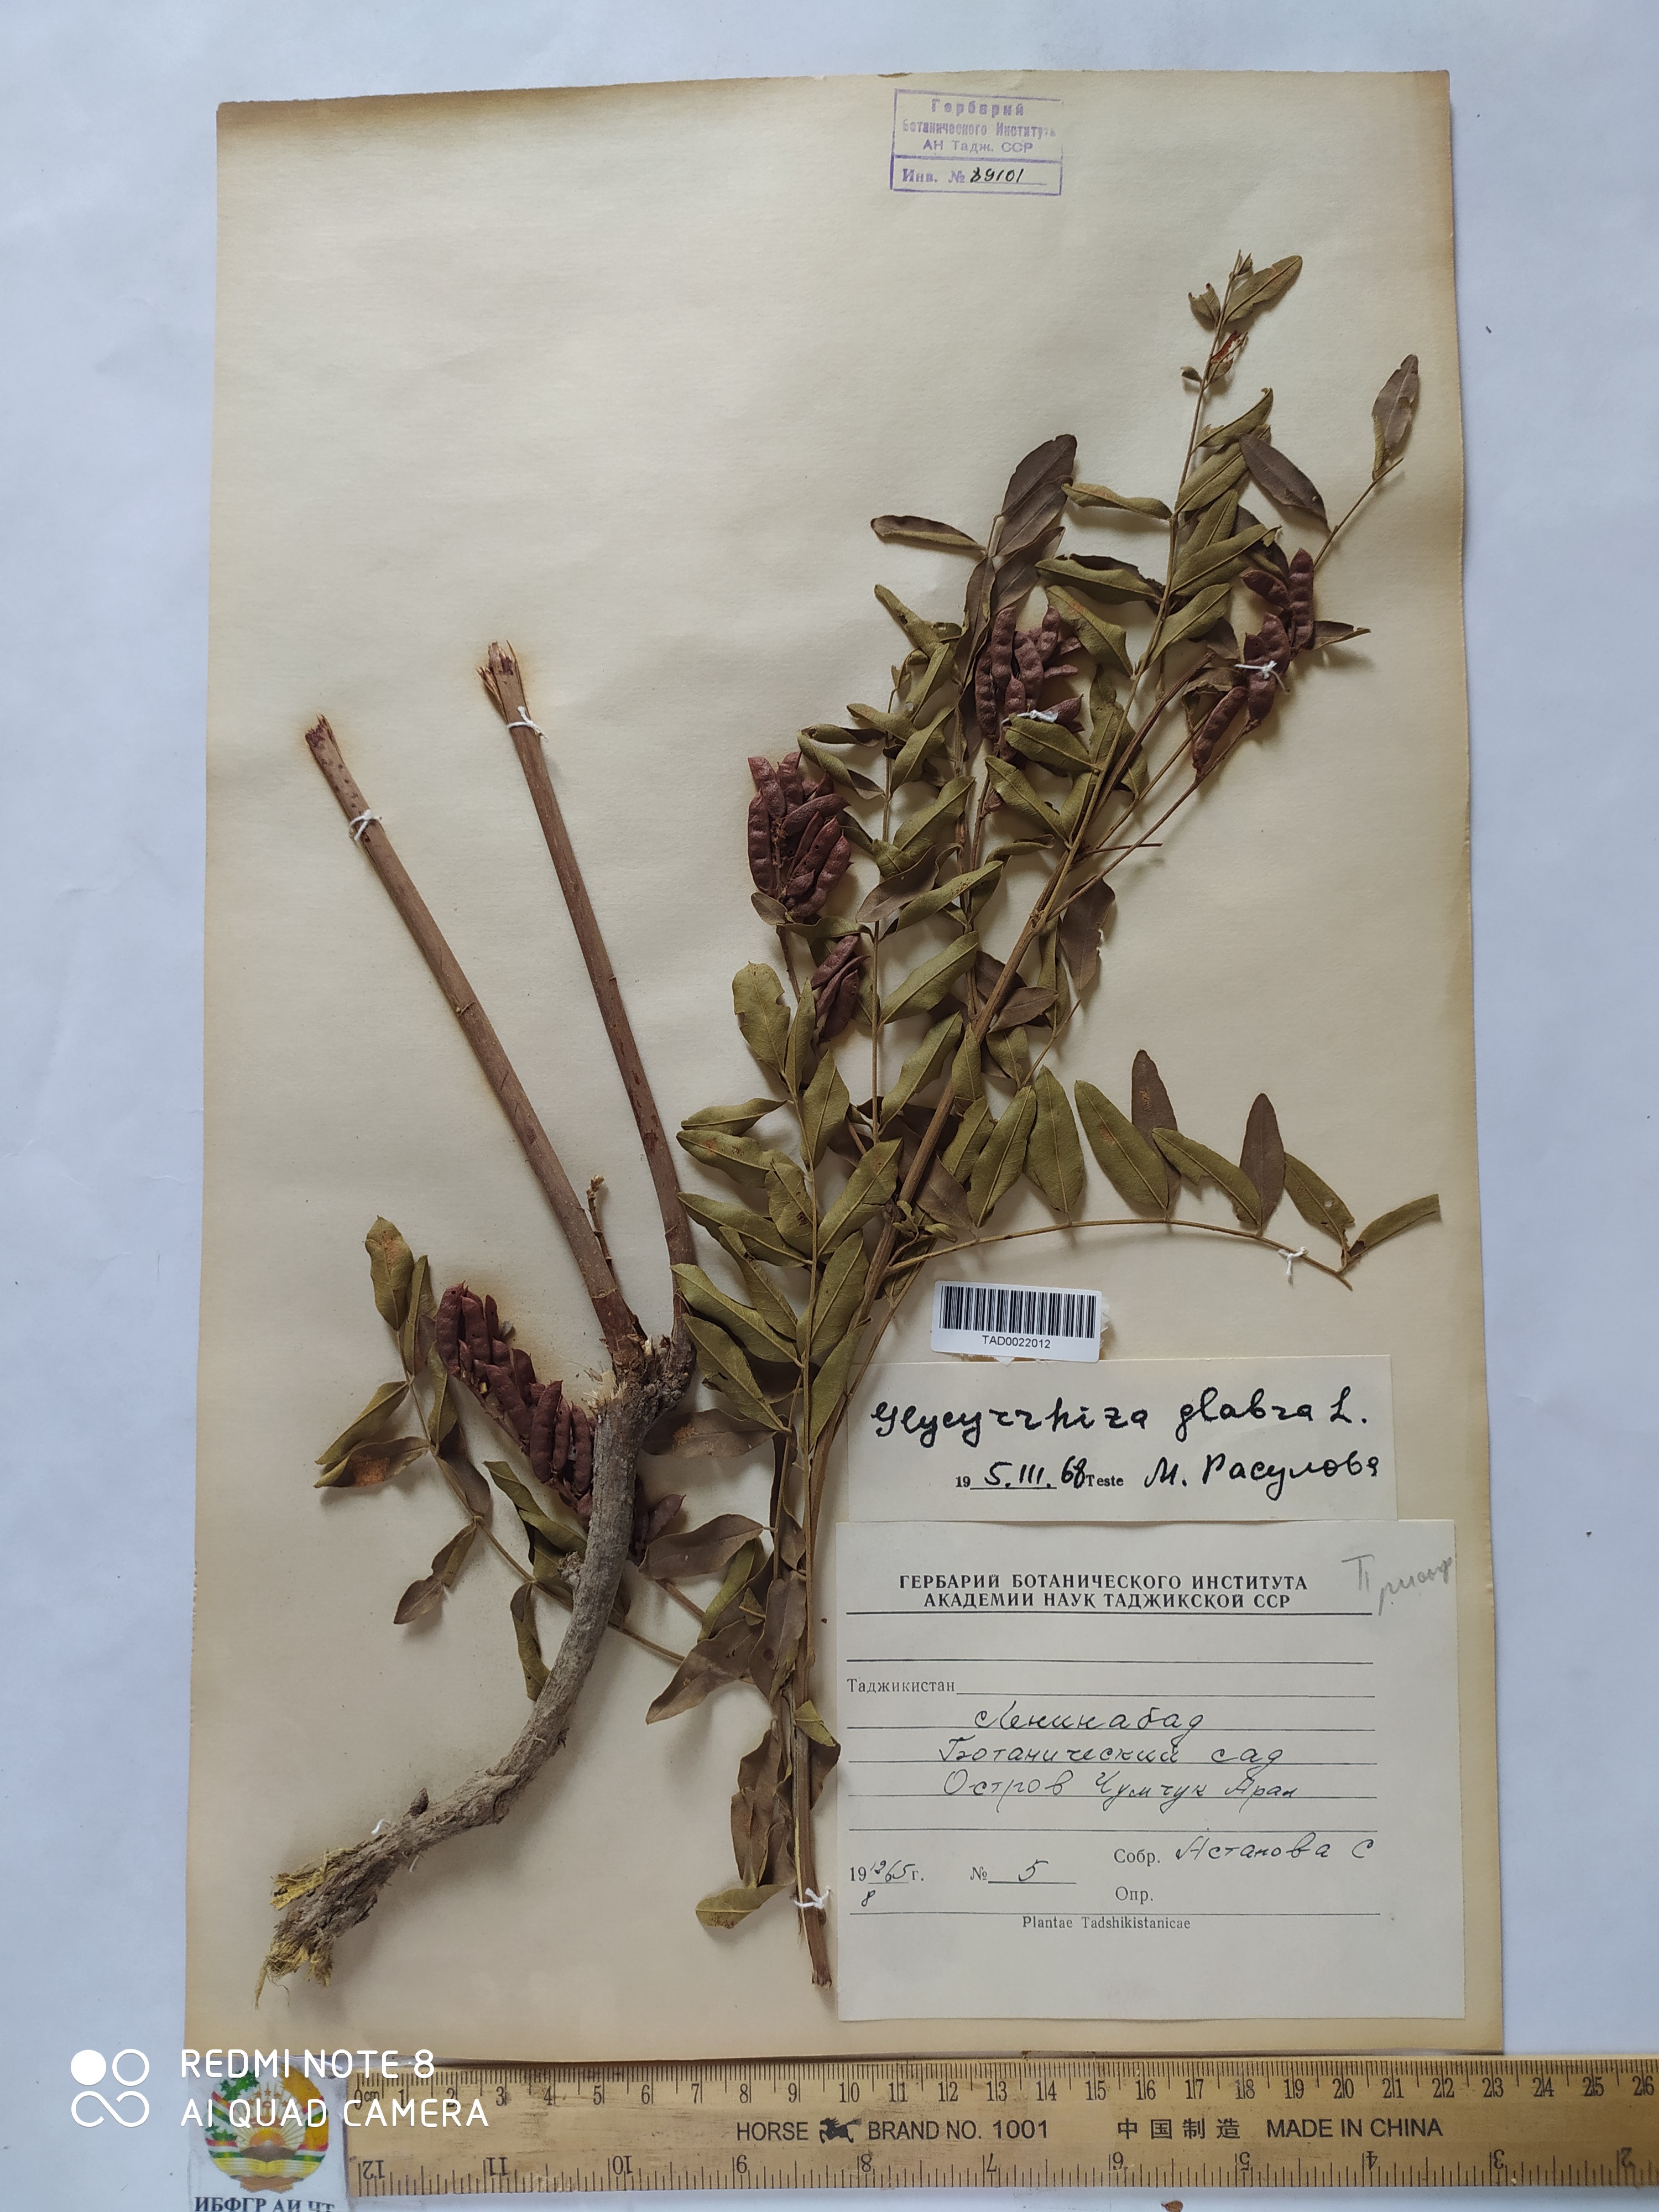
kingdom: Plantae
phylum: Tracheophyta
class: Magnoliopsida
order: Fabales
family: Fabaceae
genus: Glycyrrhiza
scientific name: Glycyrrhiza aspera
